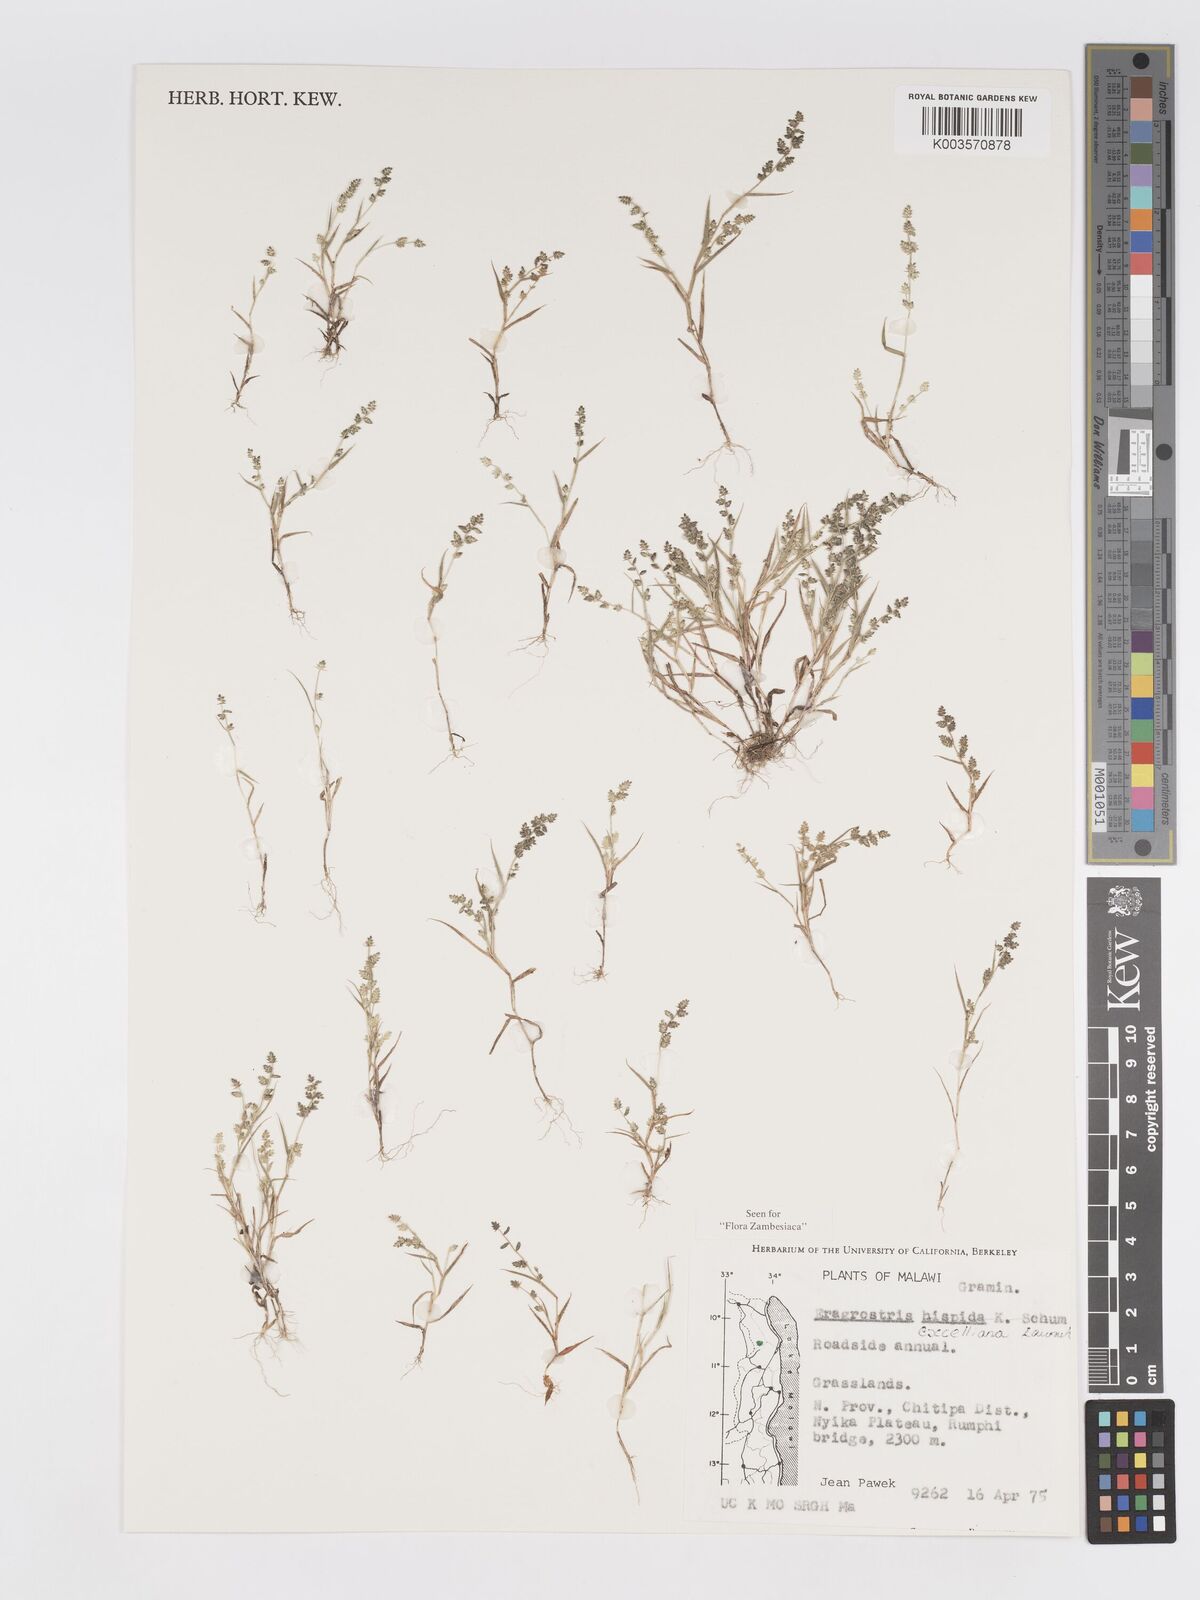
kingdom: Plantae
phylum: Tracheophyta
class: Liliopsida
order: Poales
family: Poaceae
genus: Eragrostis
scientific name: Eragrostis exelliana
